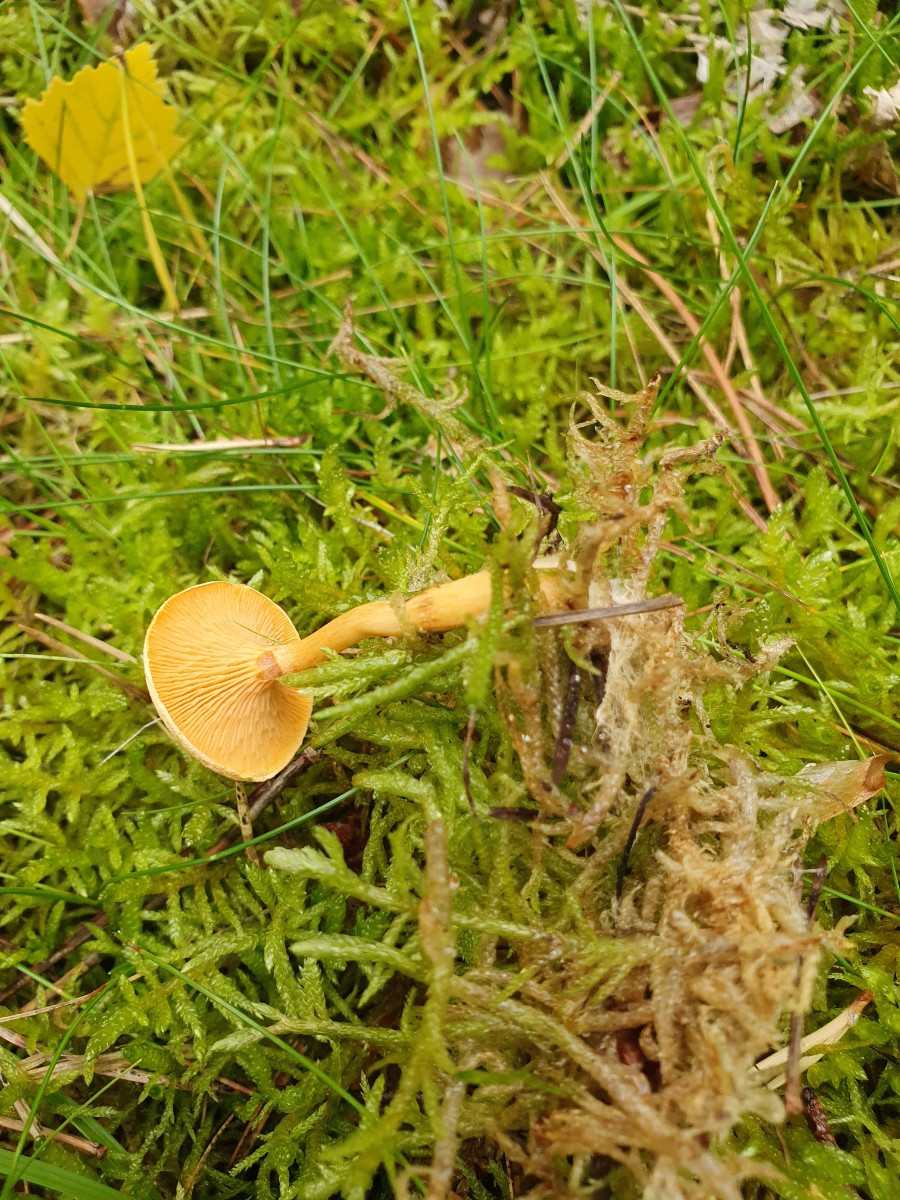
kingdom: Fungi
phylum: Basidiomycota
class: Agaricomycetes
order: Boletales
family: Hygrophoropsidaceae
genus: Hygrophoropsis
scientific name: Hygrophoropsis aurantiaca
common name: almindelig orangekantarel
